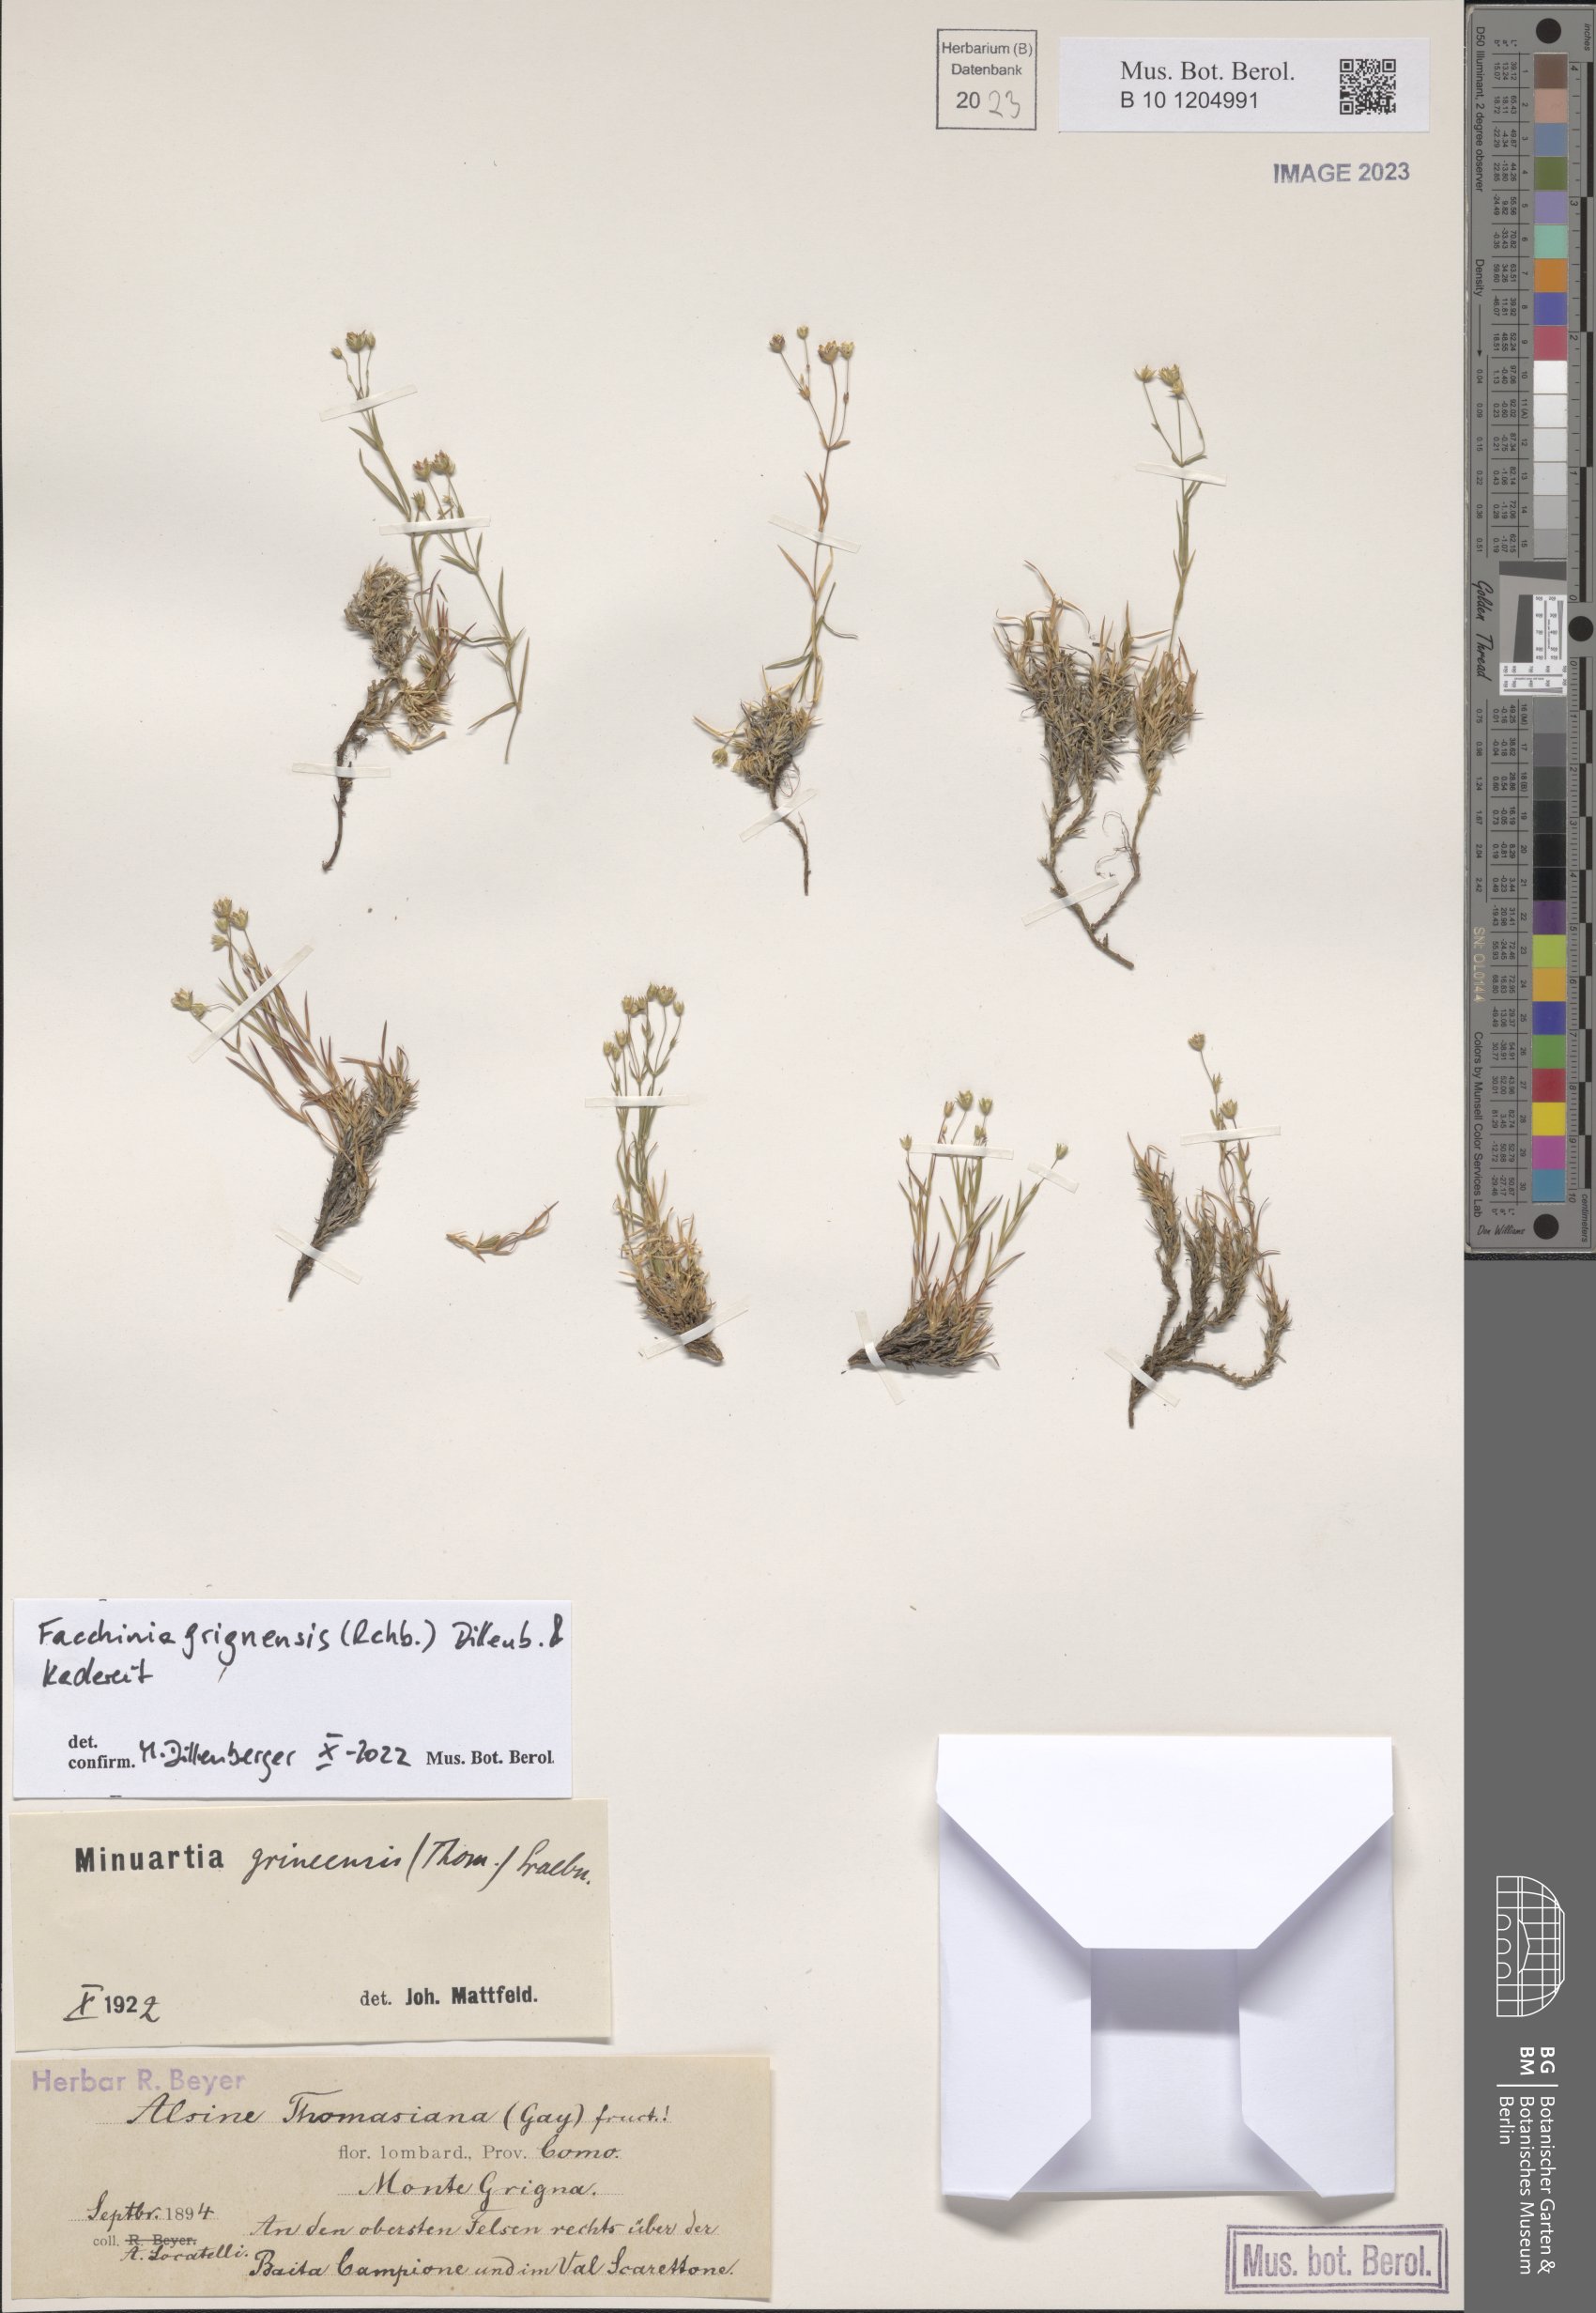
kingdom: Plantae
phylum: Tracheophyta
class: Magnoliopsida
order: Caryophyllales
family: Caryophyllaceae
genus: Facchinia
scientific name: Facchinia grignensis
